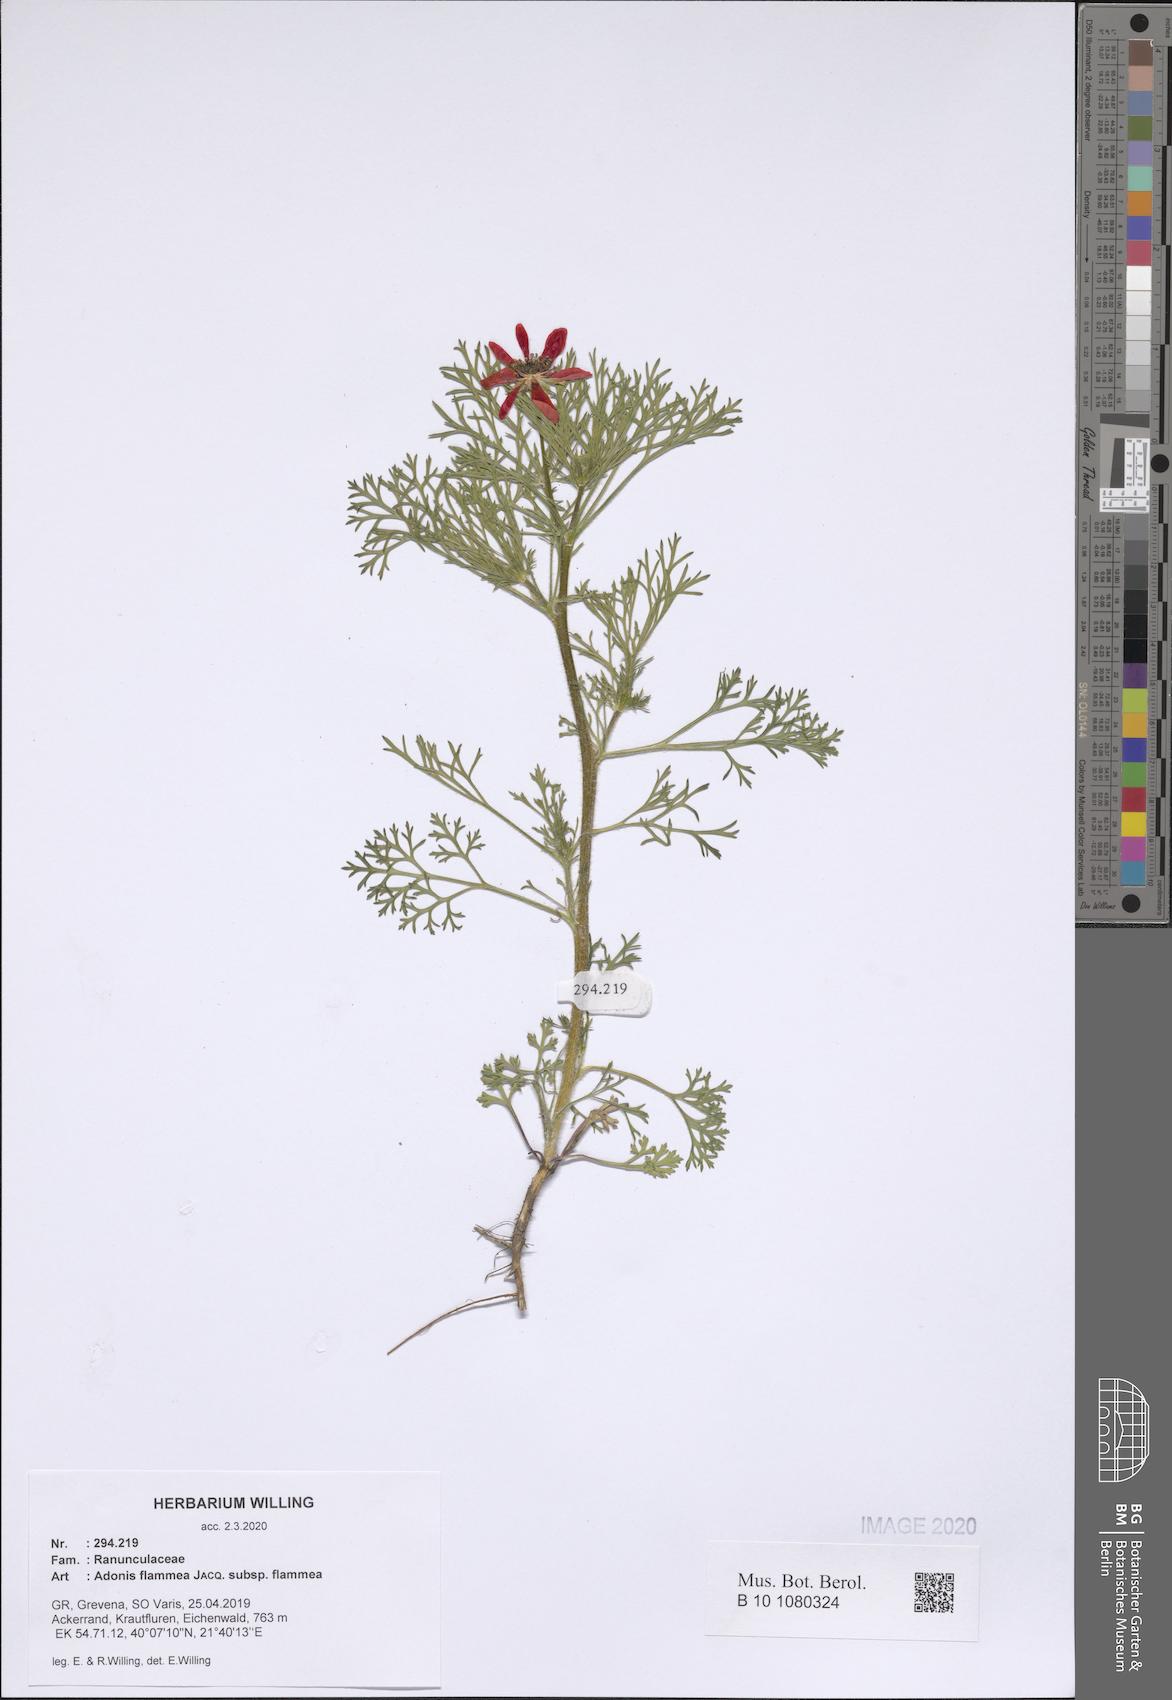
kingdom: Plantae
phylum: Tracheophyta
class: Magnoliopsida
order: Ranunculales
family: Ranunculaceae
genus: Adonis
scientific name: Adonis flammea
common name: Large pheasant's-eye
